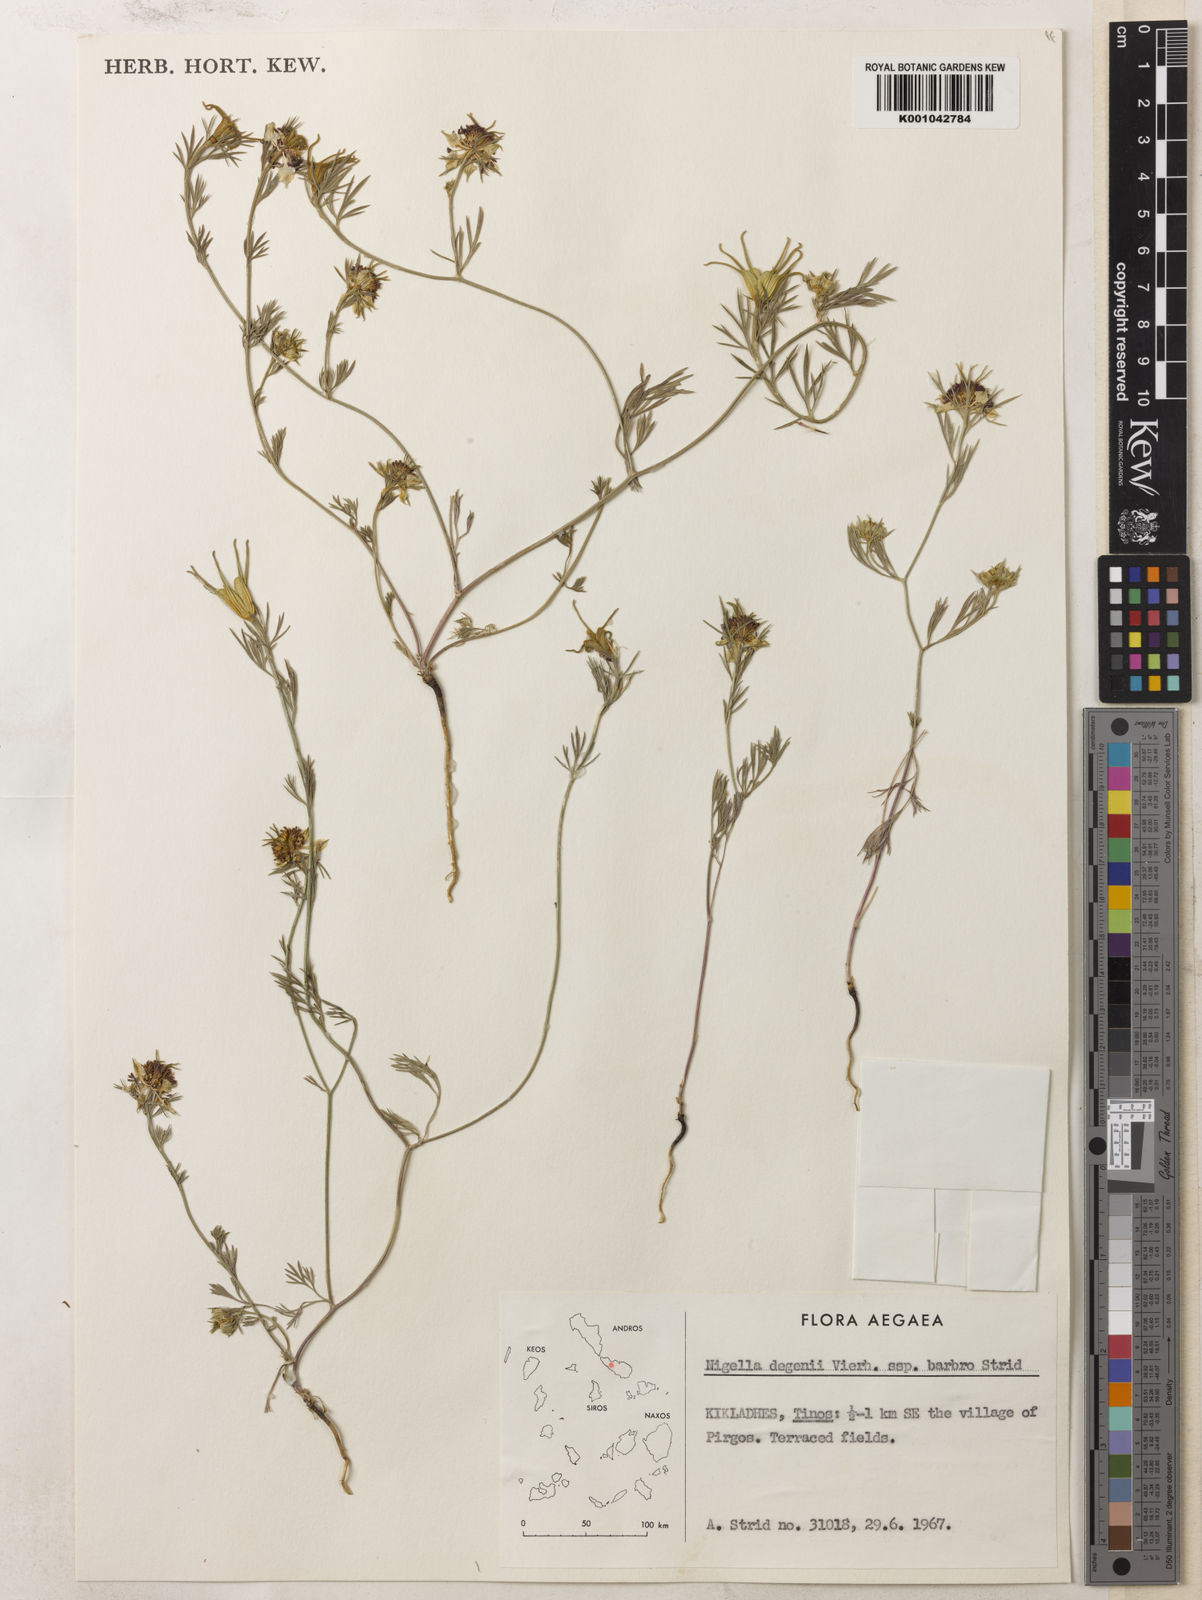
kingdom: Plantae
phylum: Tracheophyta
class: Magnoliopsida
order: Ranunculales
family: Ranunculaceae
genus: Nigella
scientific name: Nigella degenii
